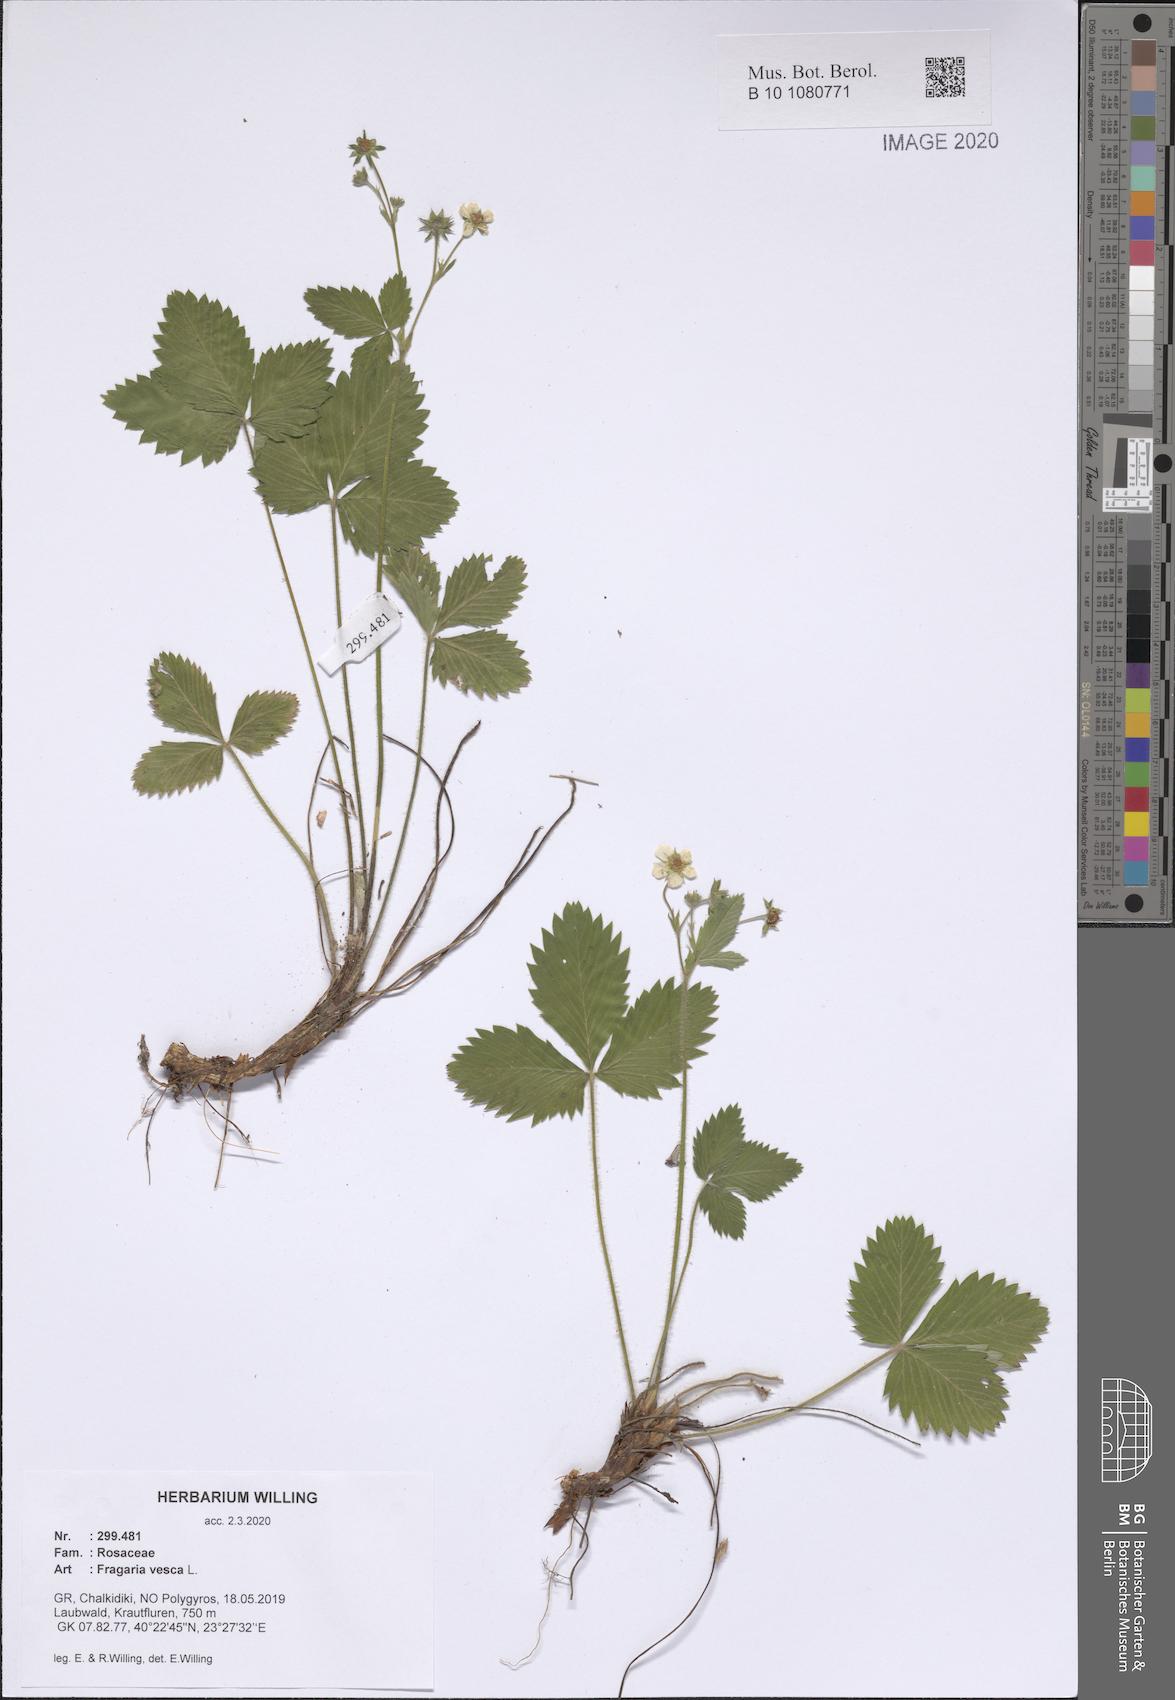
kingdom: Plantae
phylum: Tracheophyta
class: Magnoliopsida
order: Rosales
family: Rosaceae
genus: Fragaria
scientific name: Fragaria vesca
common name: Wild strawberry
